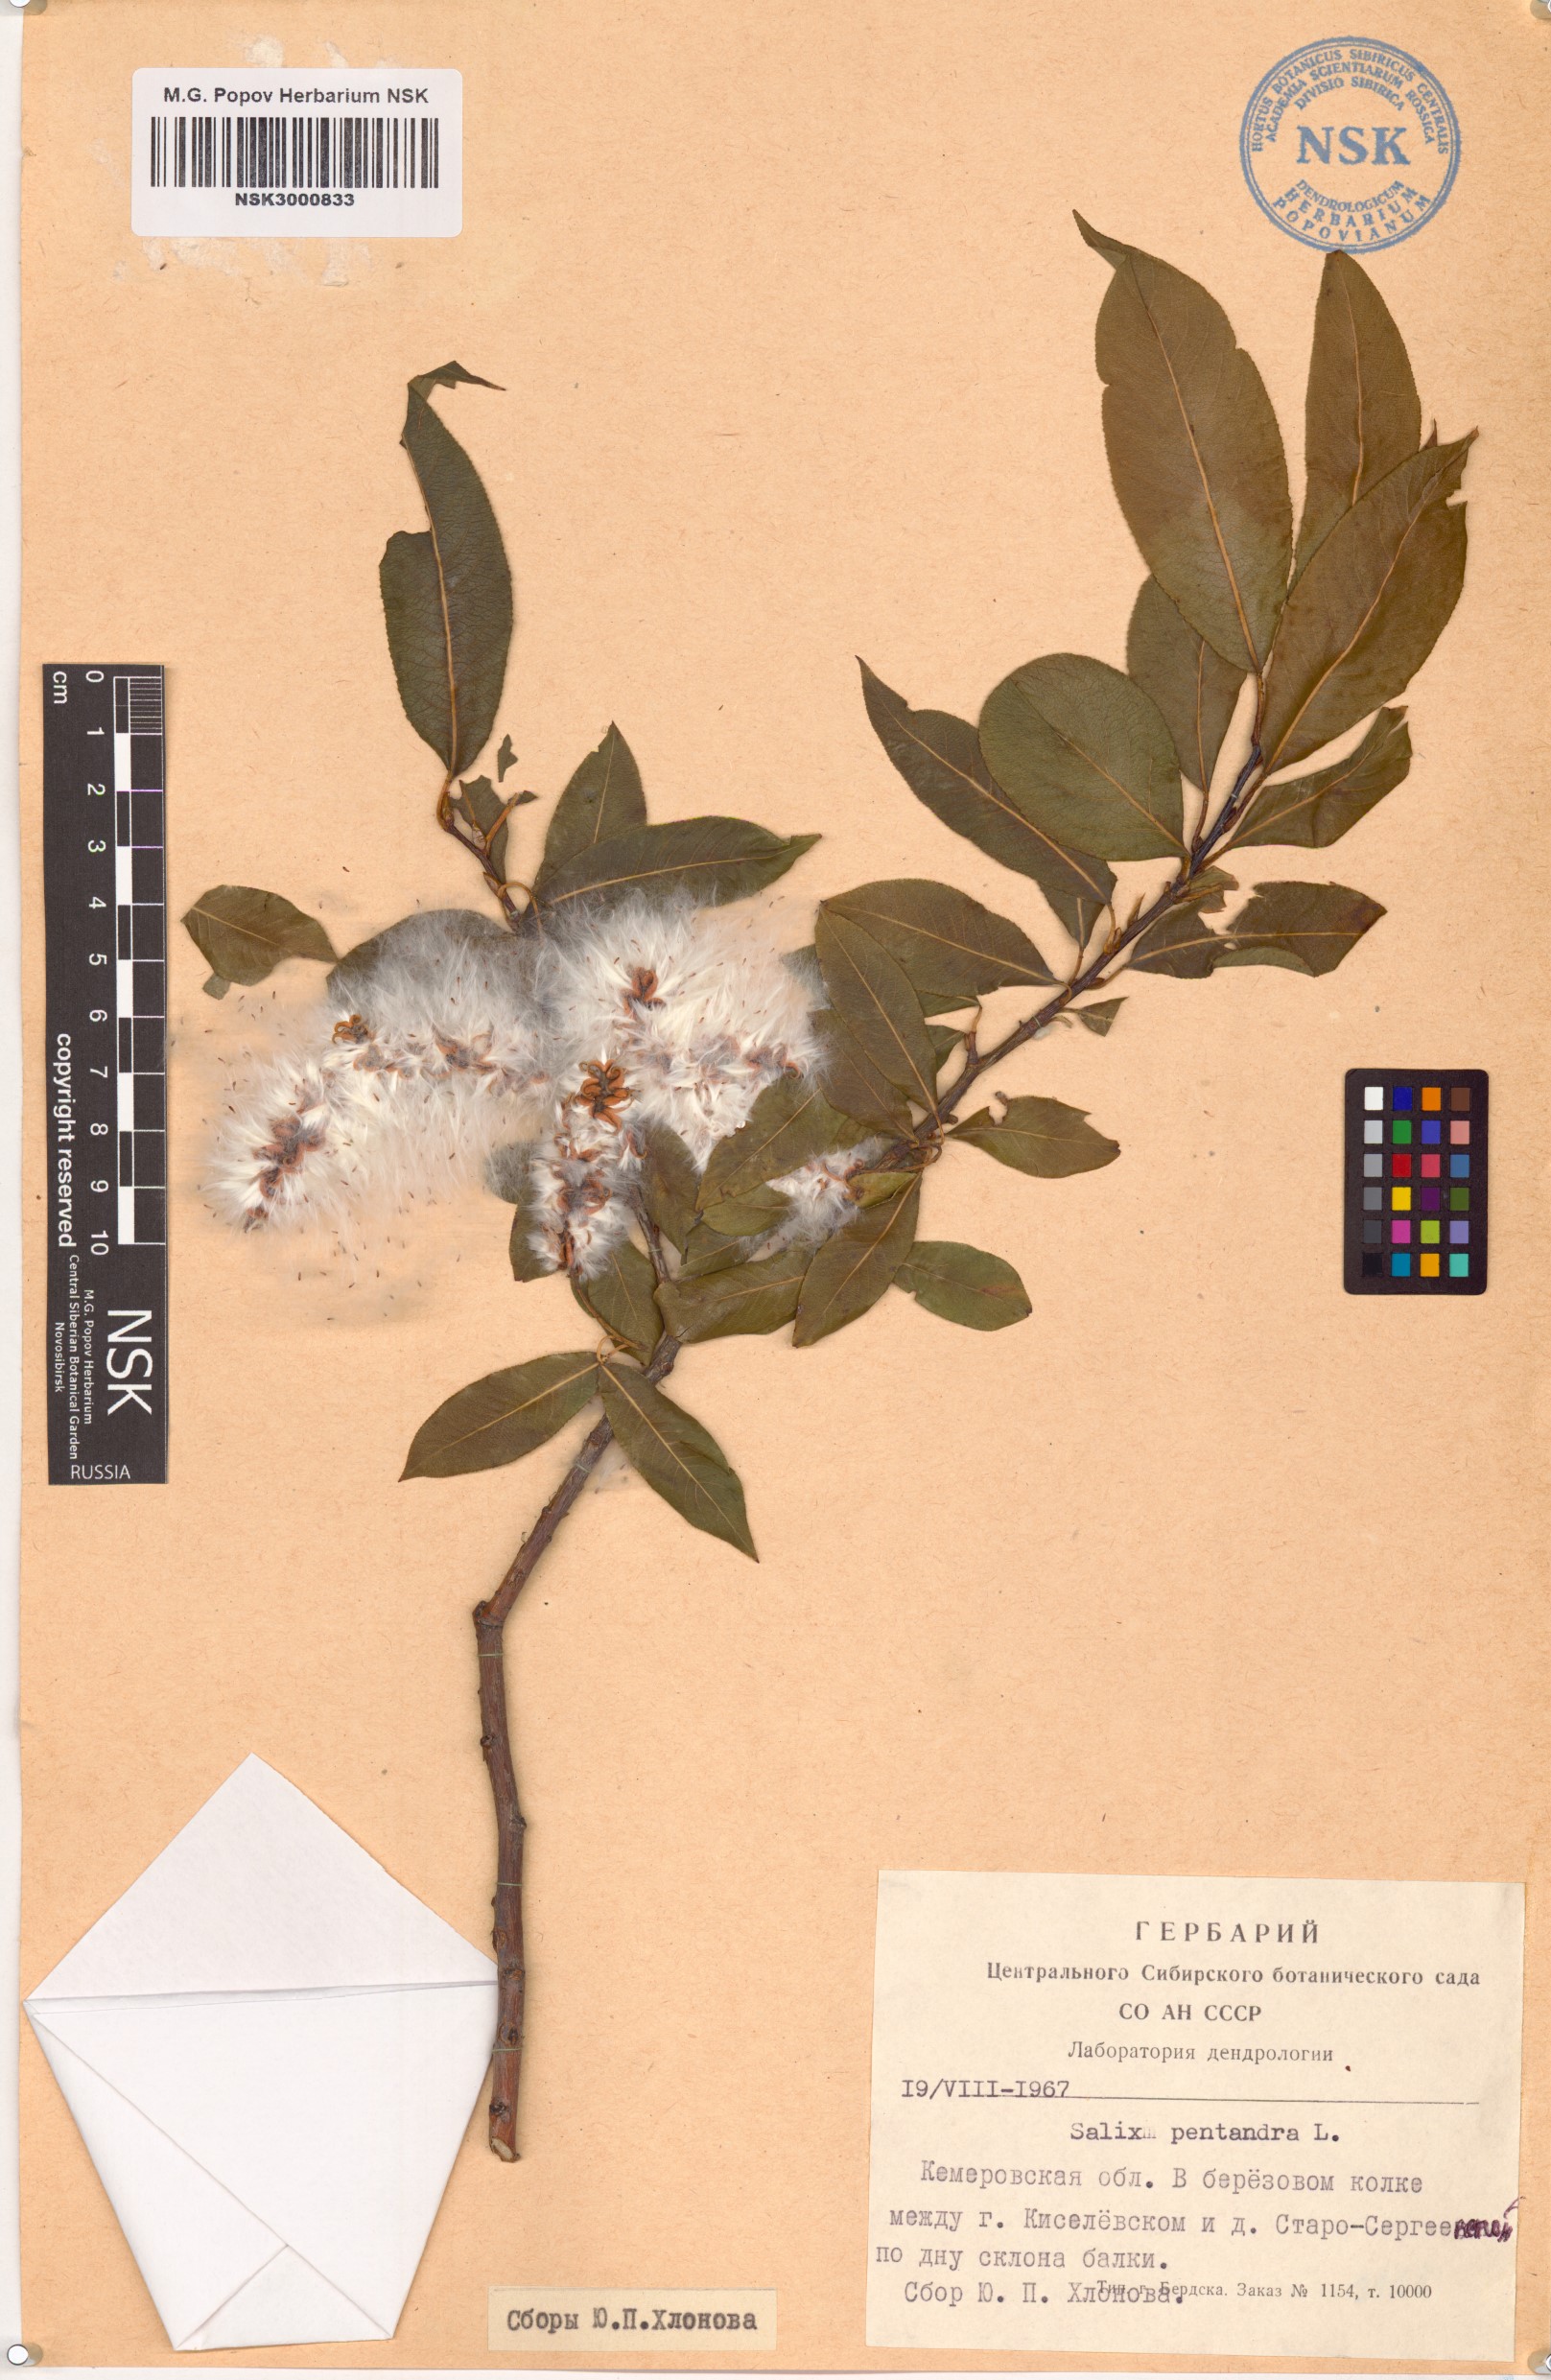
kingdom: Plantae
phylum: Tracheophyta
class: Magnoliopsida
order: Malpighiales
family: Salicaceae
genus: Salix
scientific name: Salix pentandra
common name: Bay willow
